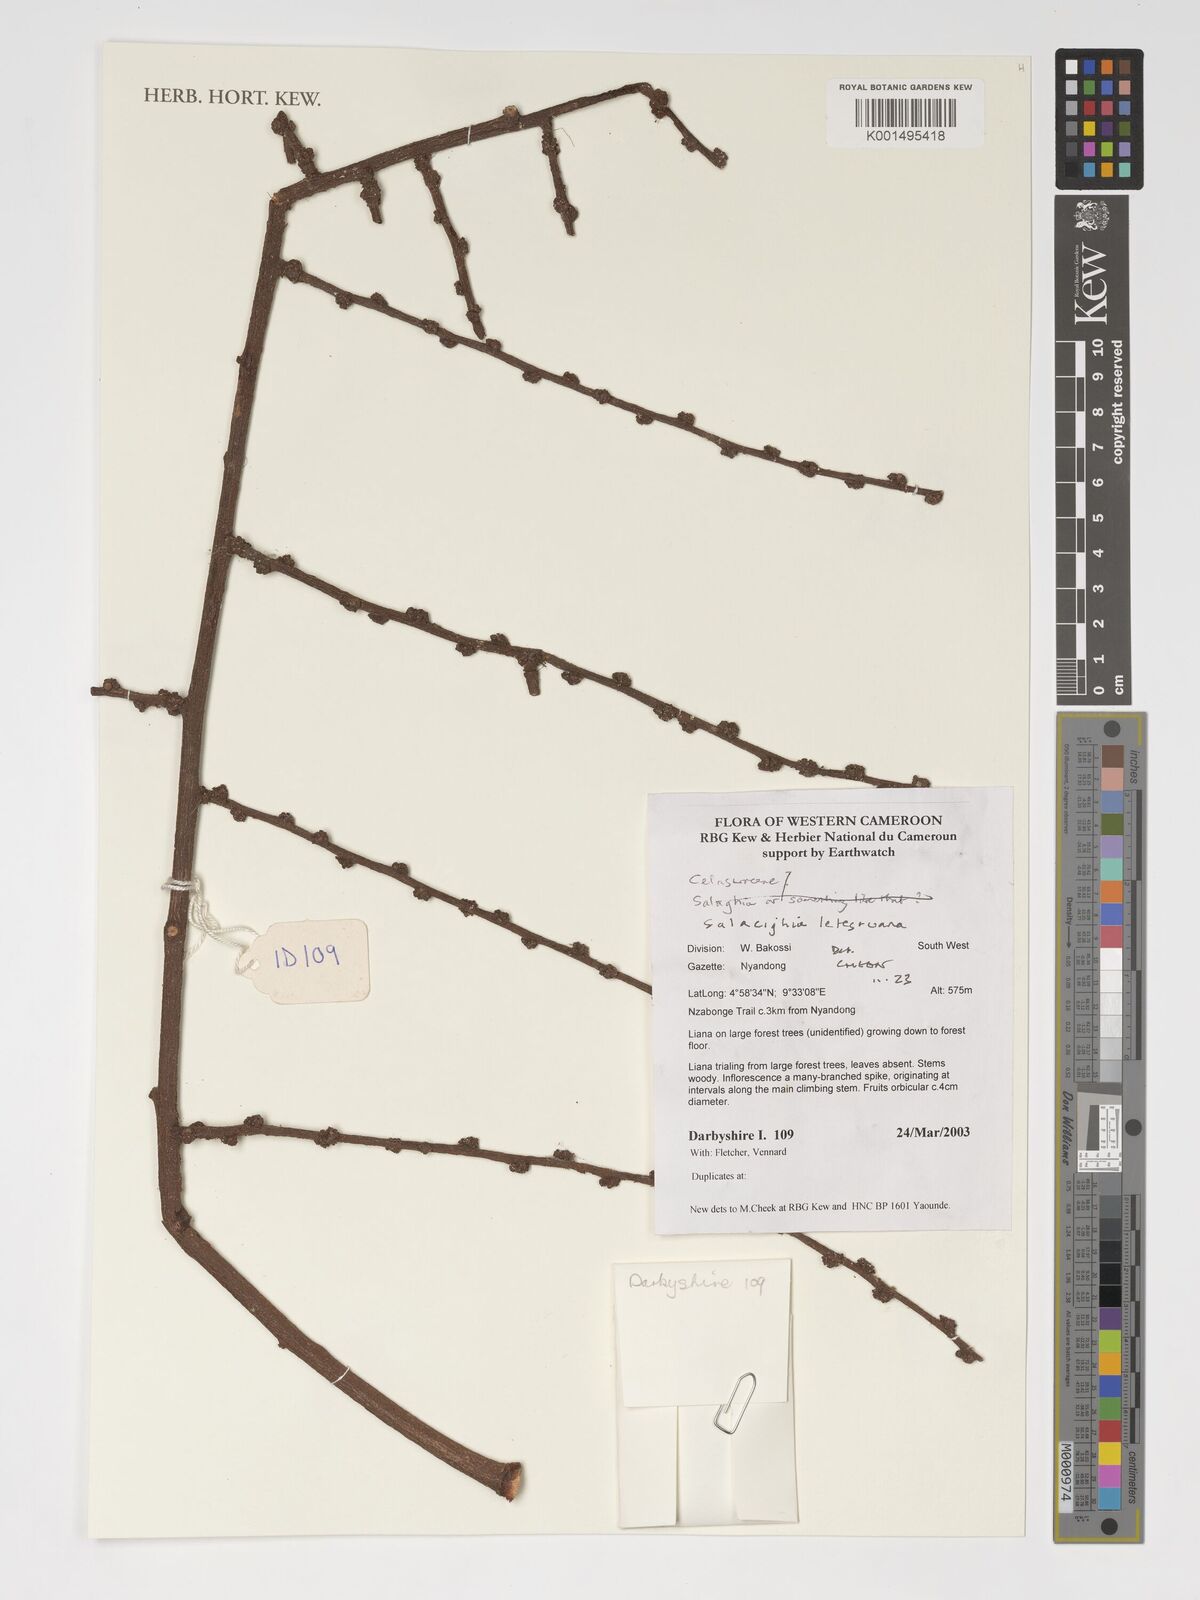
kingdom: Plantae
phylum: Tracheophyta
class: Magnoliopsida
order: Celastrales
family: Celastraceae
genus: Salacighia
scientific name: Salacighia letestuana
